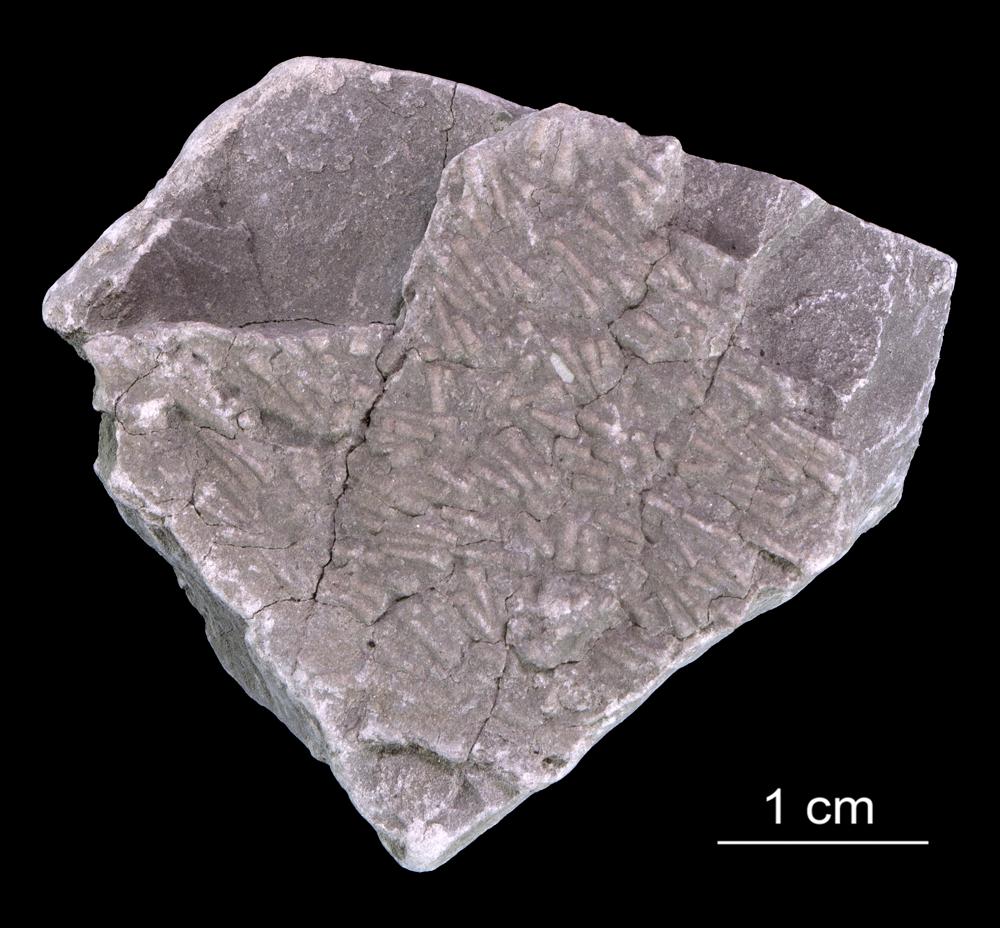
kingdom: Animalia
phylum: Annelida
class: Polychaeta
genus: Volborthella
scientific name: Volborthella tenuis
